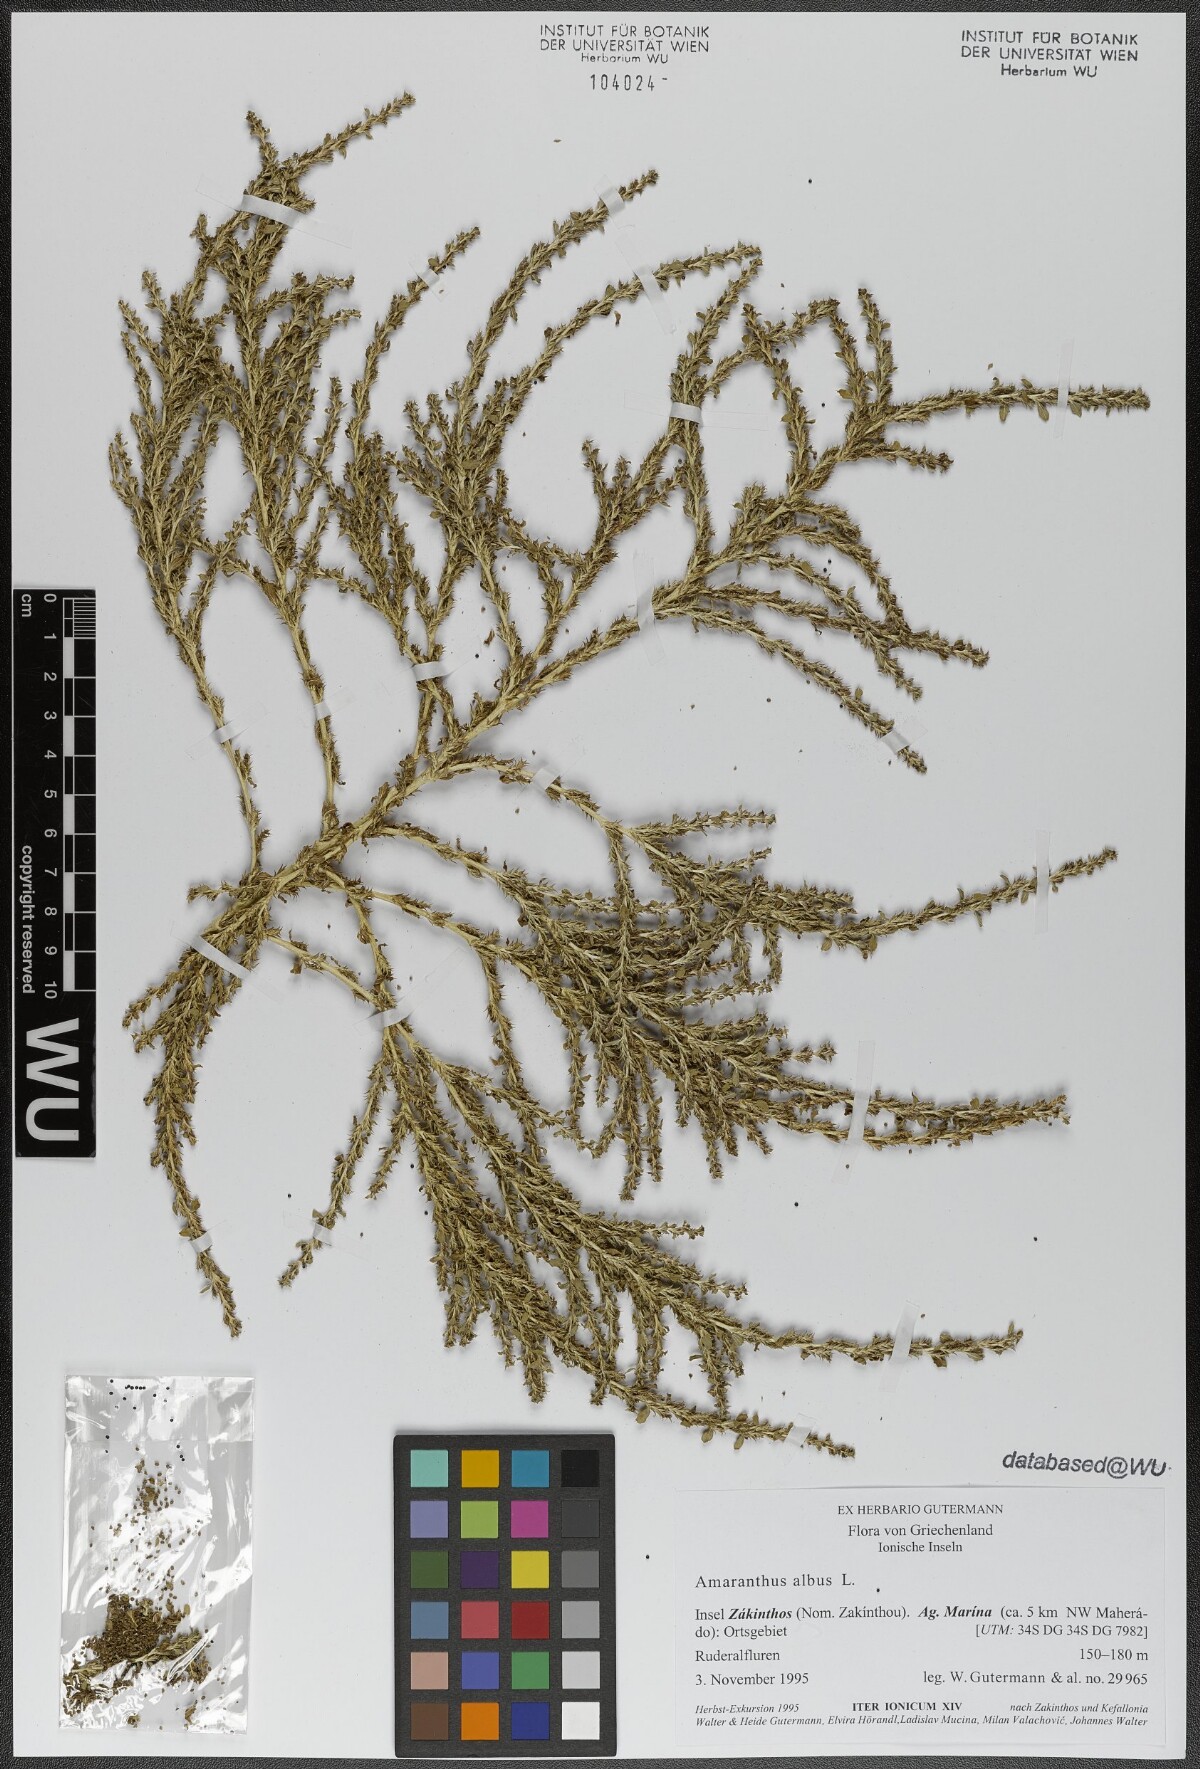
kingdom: Plantae
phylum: Tracheophyta
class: Magnoliopsida
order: Caryophyllales
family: Amaranthaceae
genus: Amaranthus
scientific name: Amaranthus albus
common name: White pigweed
